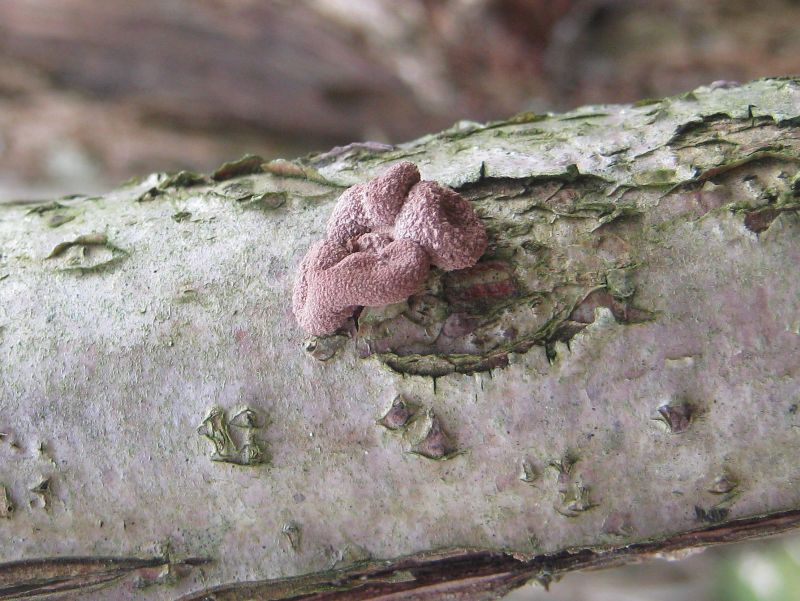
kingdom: Fungi
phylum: Ascomycota
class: Leotiomycetes
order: Helotiales
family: Cenangiaceae
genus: Encoelia
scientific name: Encoelia furfuracea
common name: hassel-læderskive
